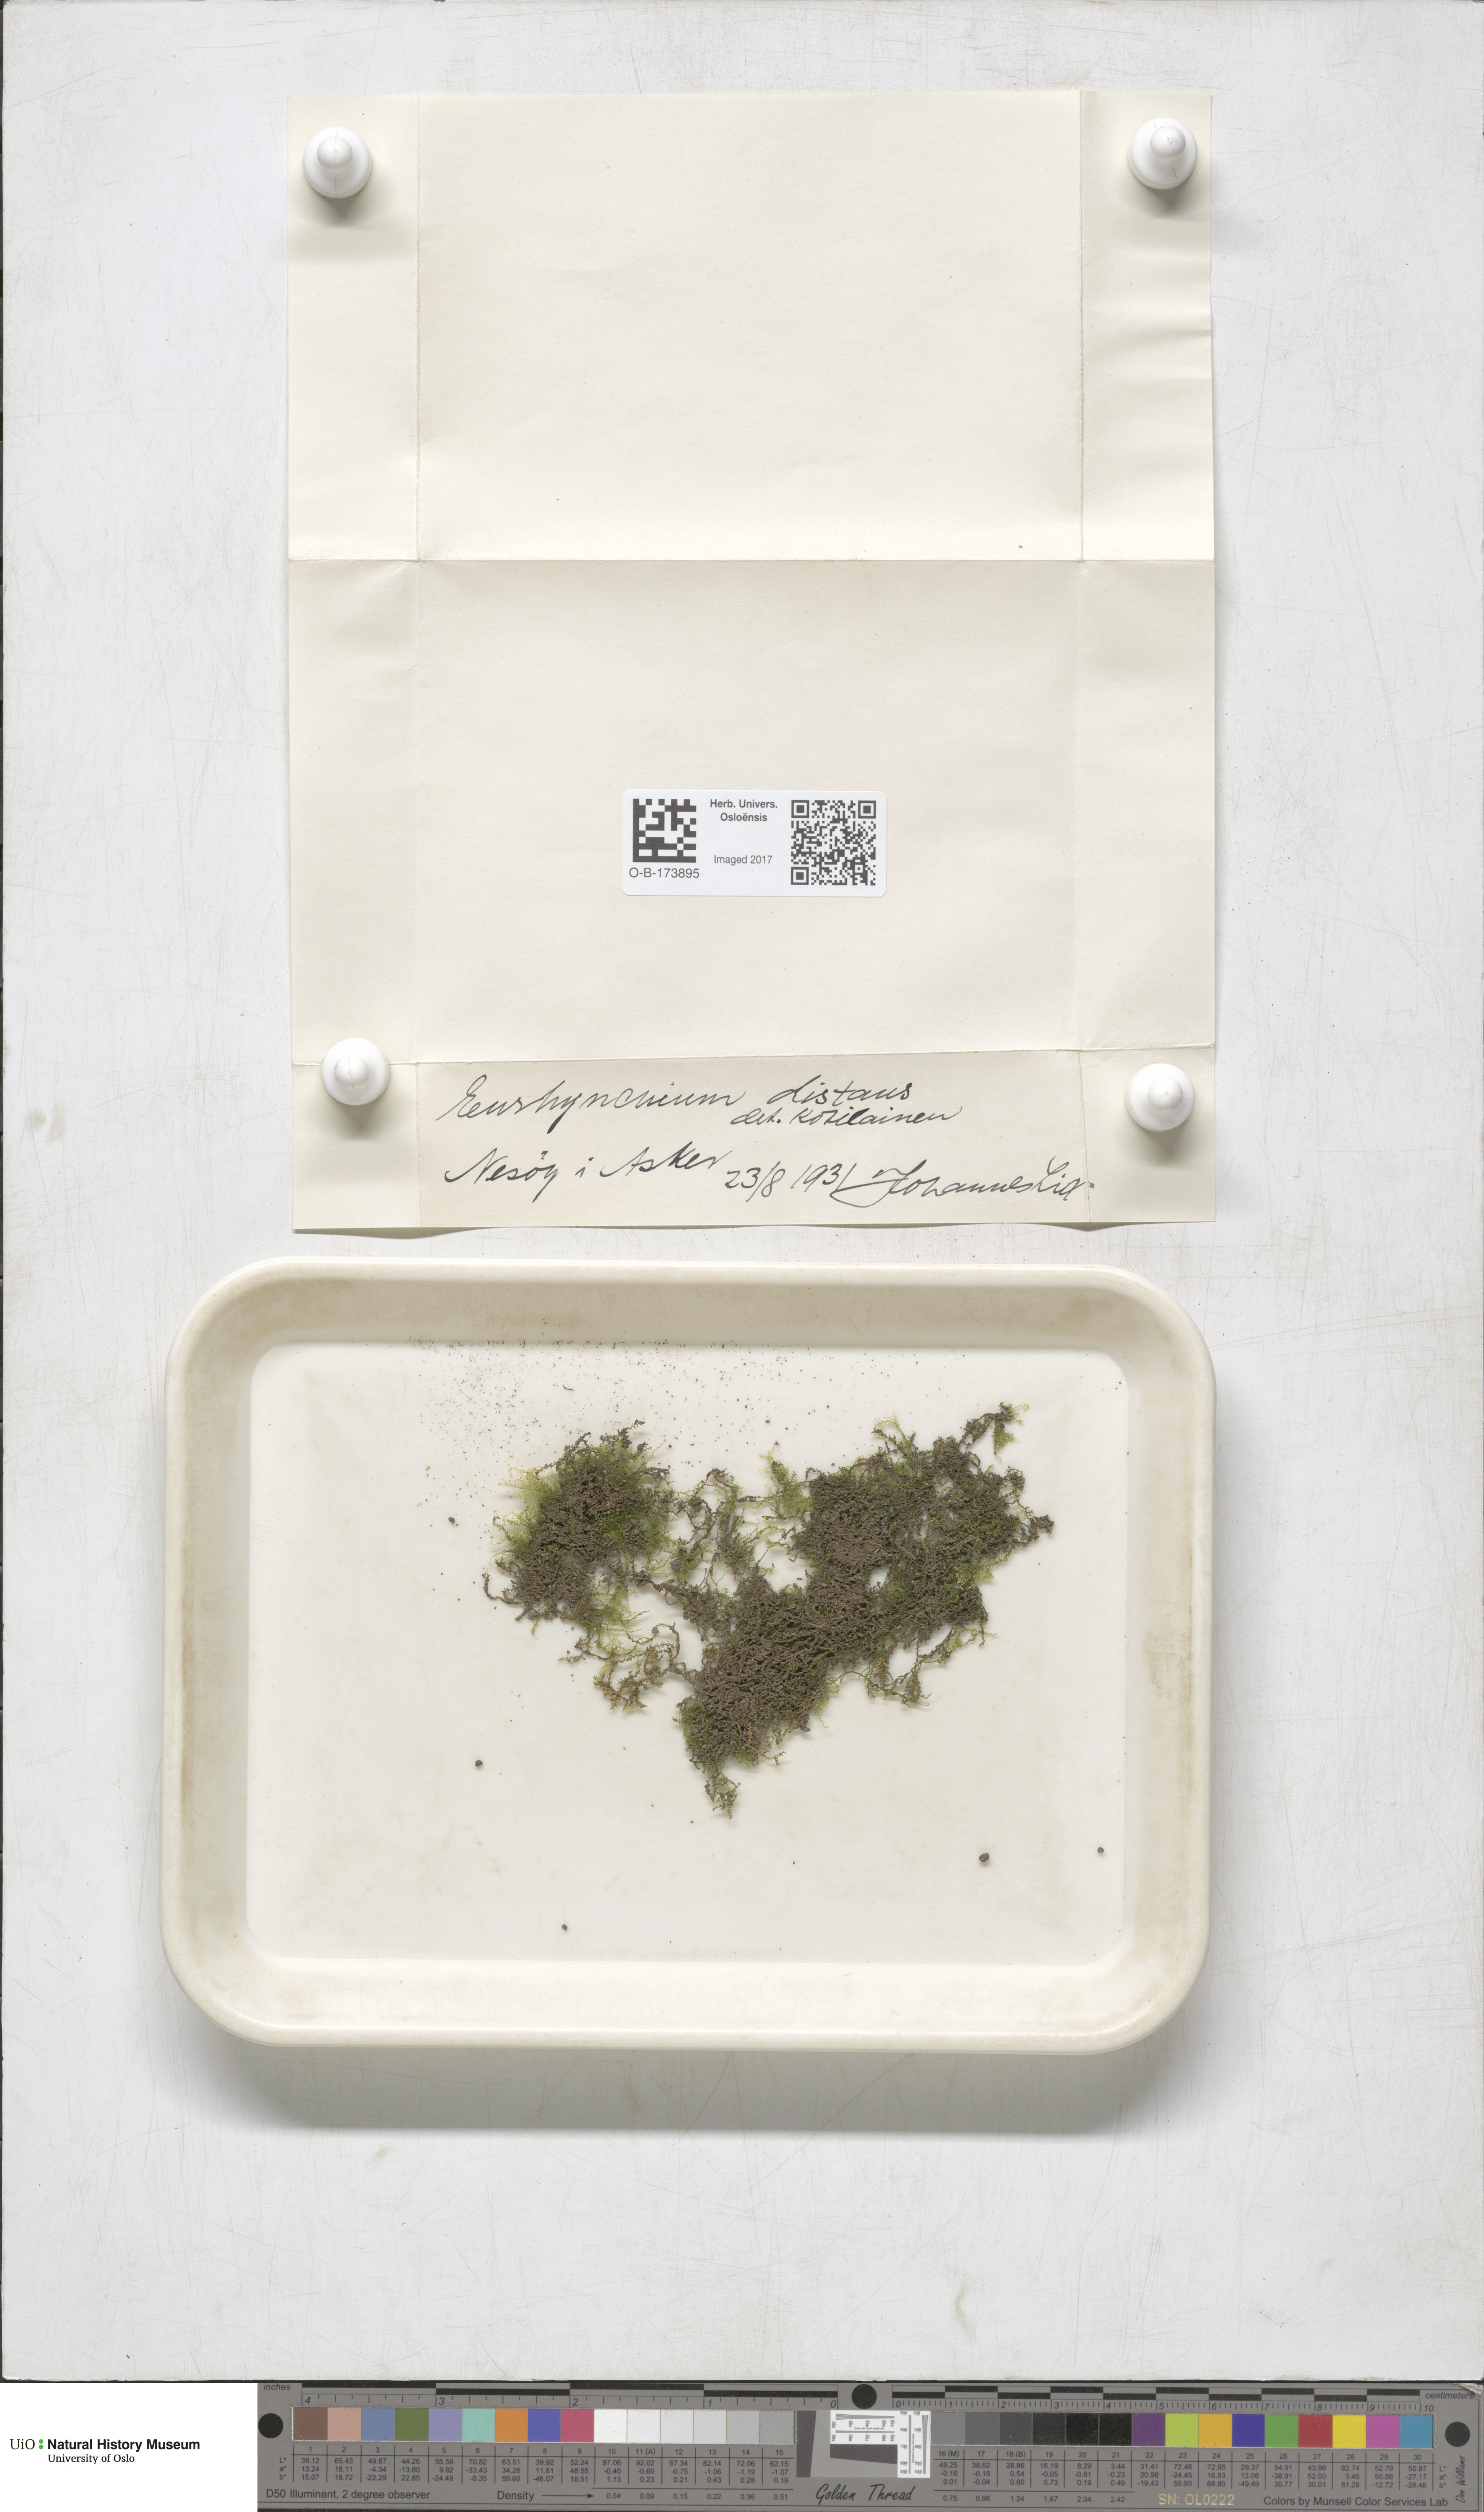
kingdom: Plantae
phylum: Bryophyta
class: Bryopsida
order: Hypnales
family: Brachytheciaceae
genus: Oxyrrhynchium
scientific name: Oxyrrhynchium hians
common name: Spreading beaked moss
